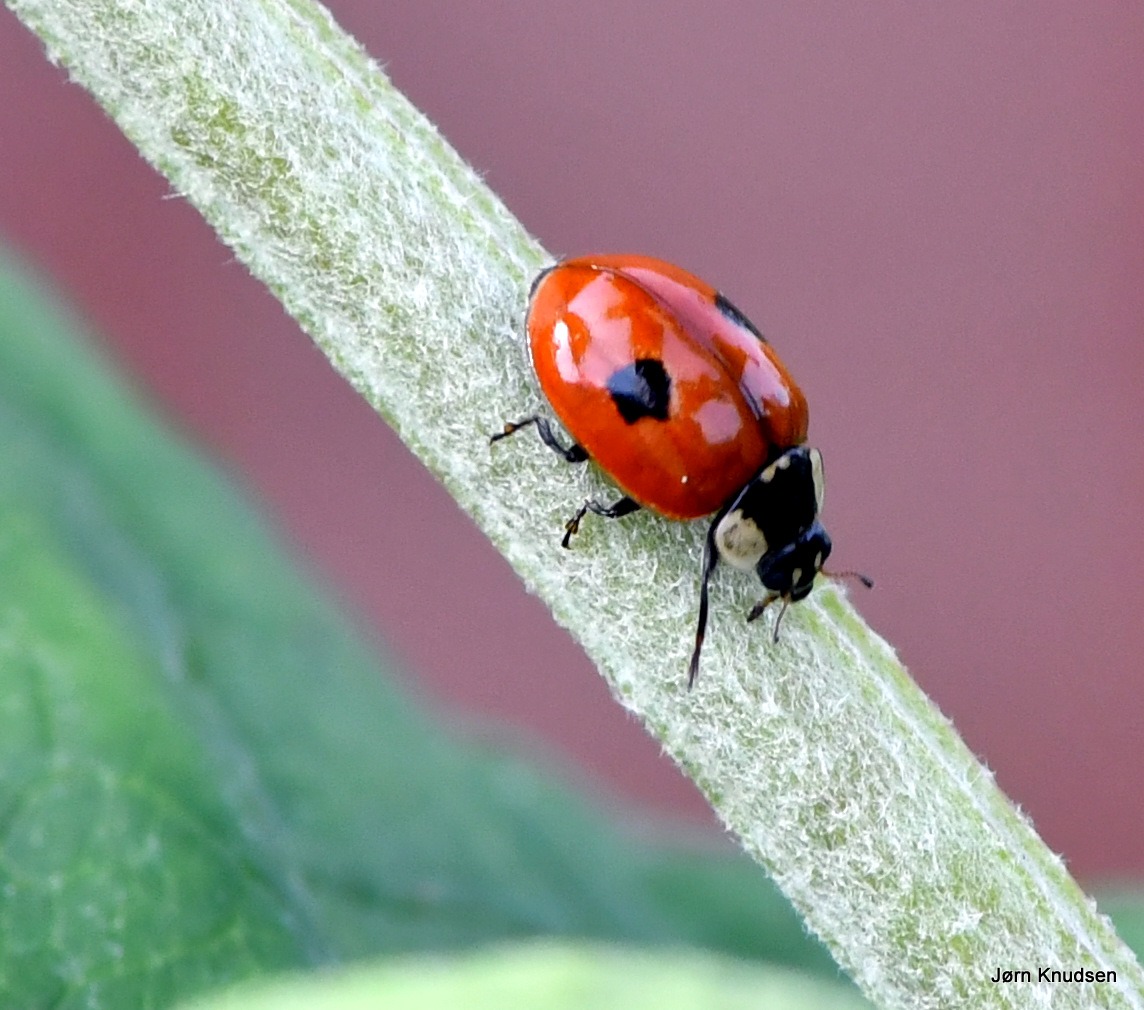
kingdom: Animalia
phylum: Arthropoda
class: Insecta
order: Coleoptera
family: Coccinellidae
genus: Adalia
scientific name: Adalia bipunctata
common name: Toplettet mariehøne
